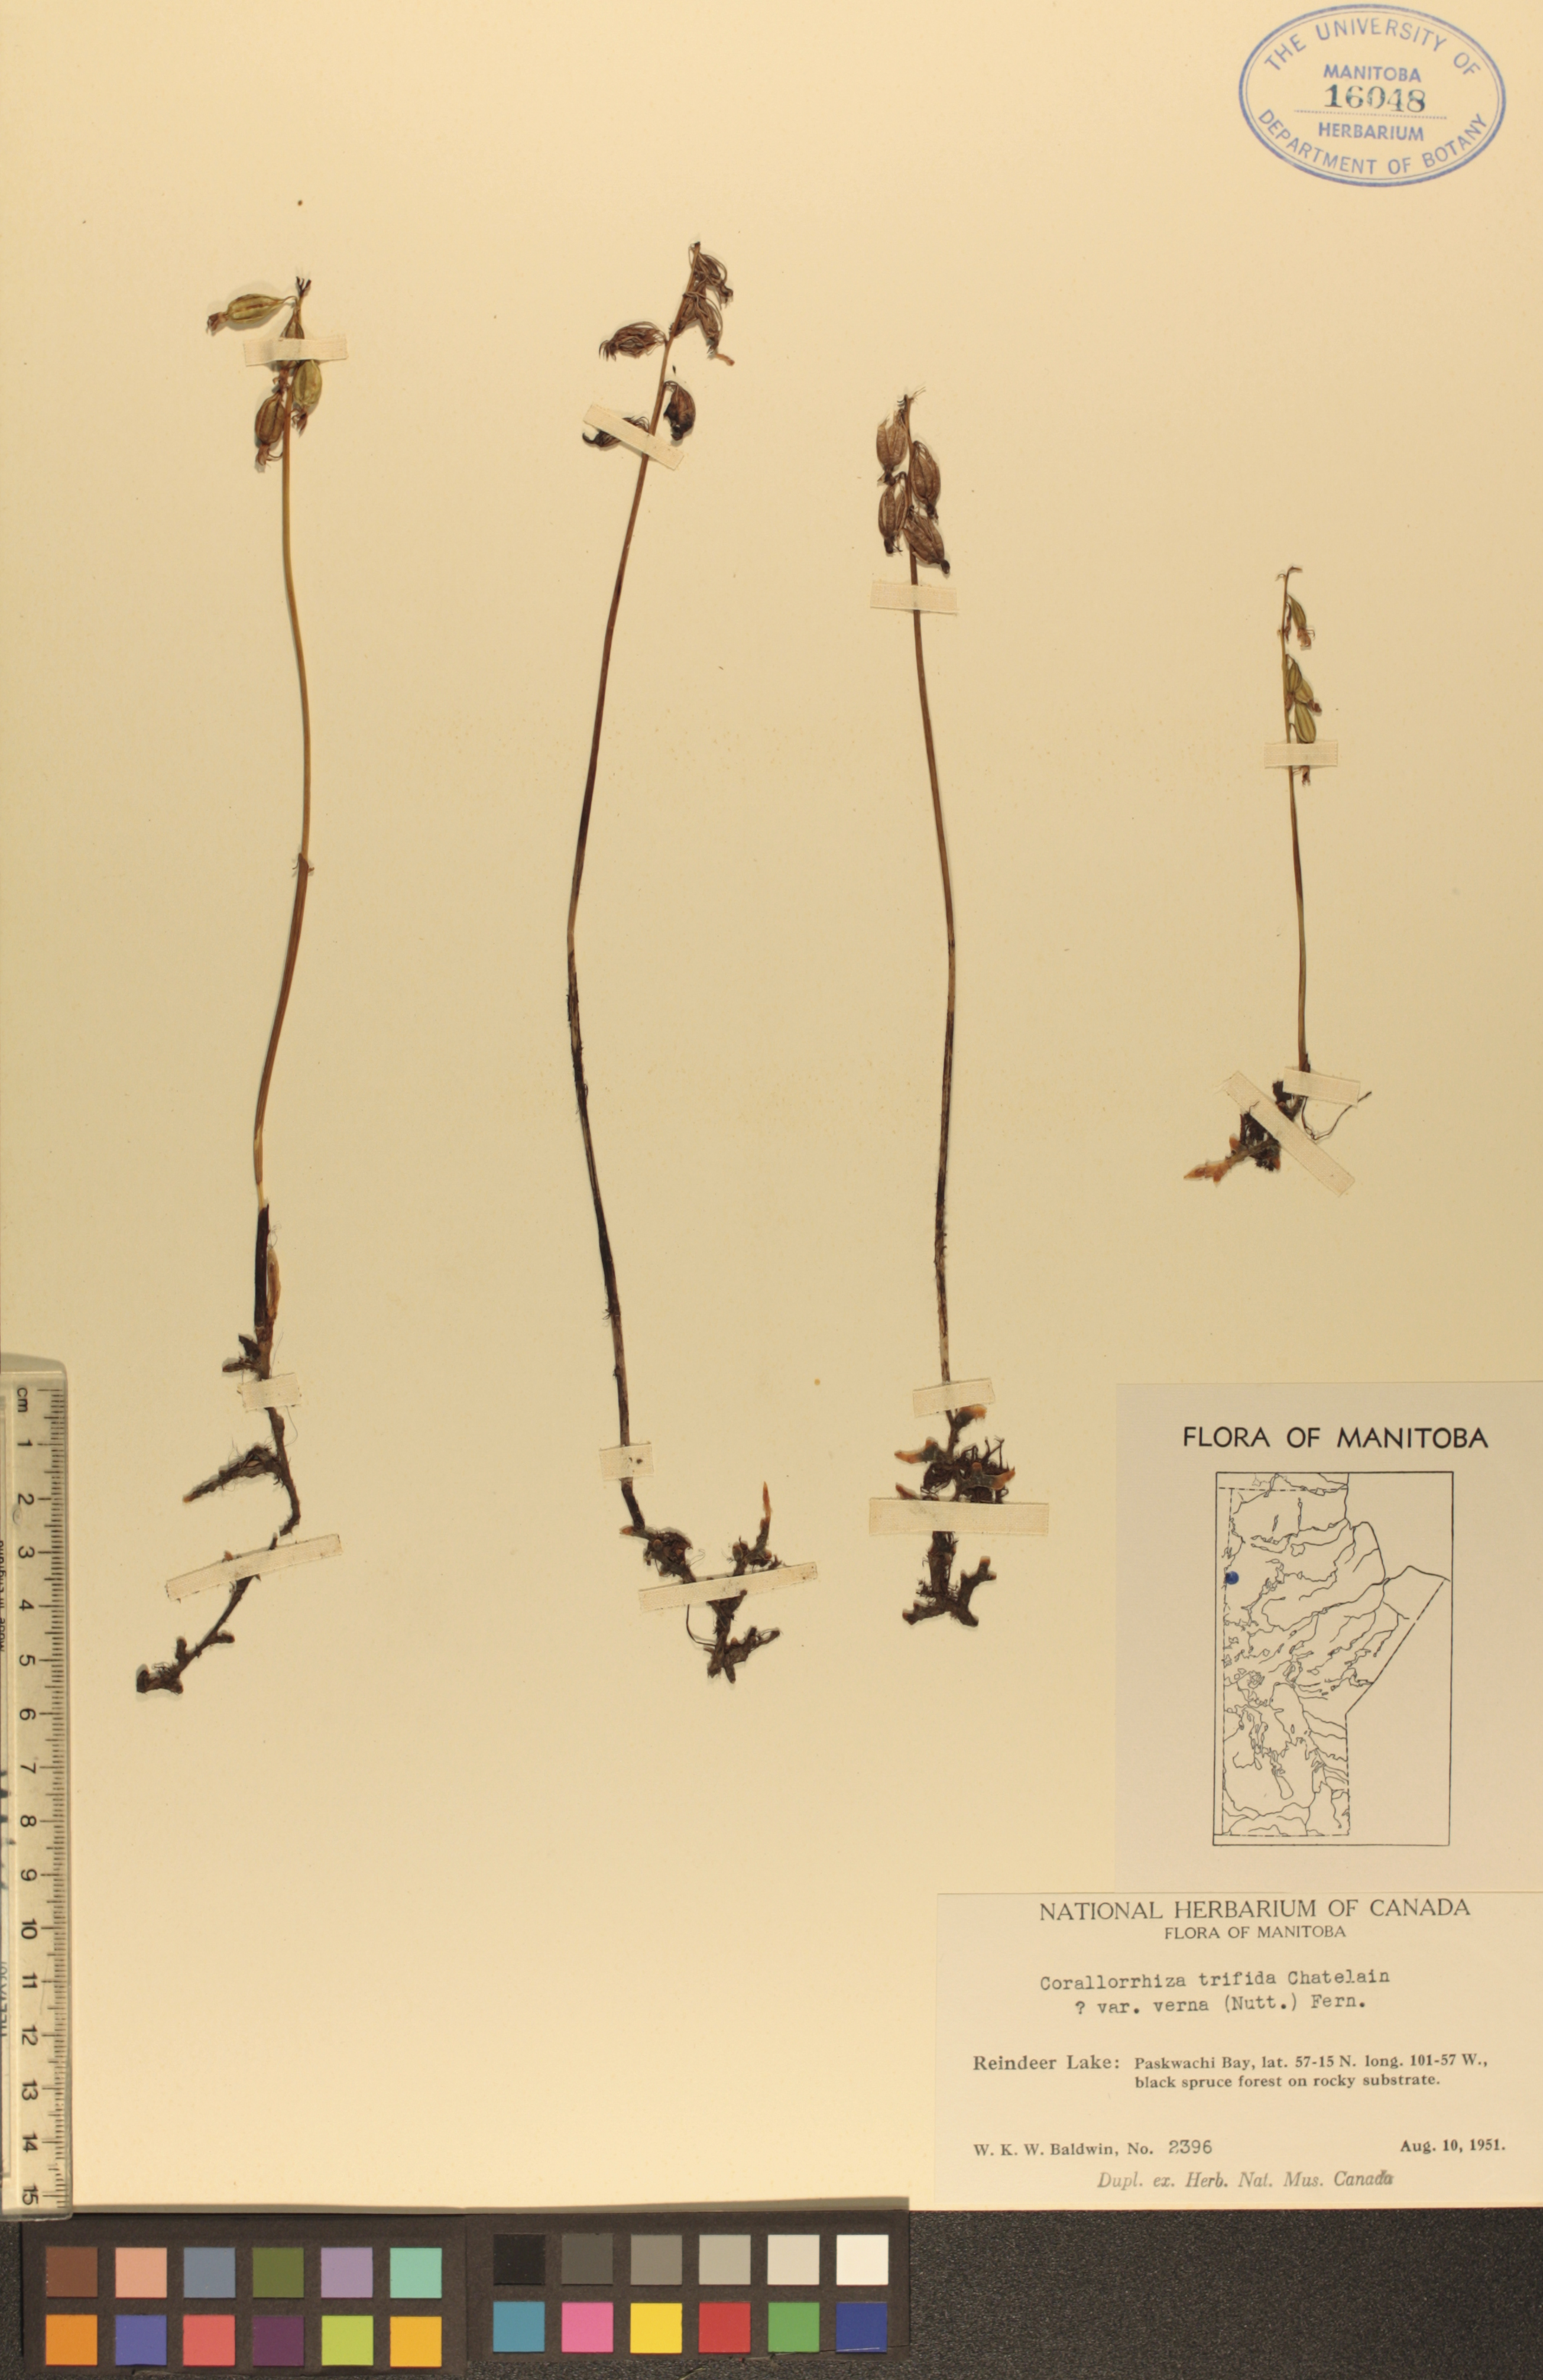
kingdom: Plantae
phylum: Tracheophyta
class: Liliopsida
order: Asparagales
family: Orchidaceae
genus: Corallorhiza
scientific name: Corallorhiza trifida
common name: Yellow coralroot
